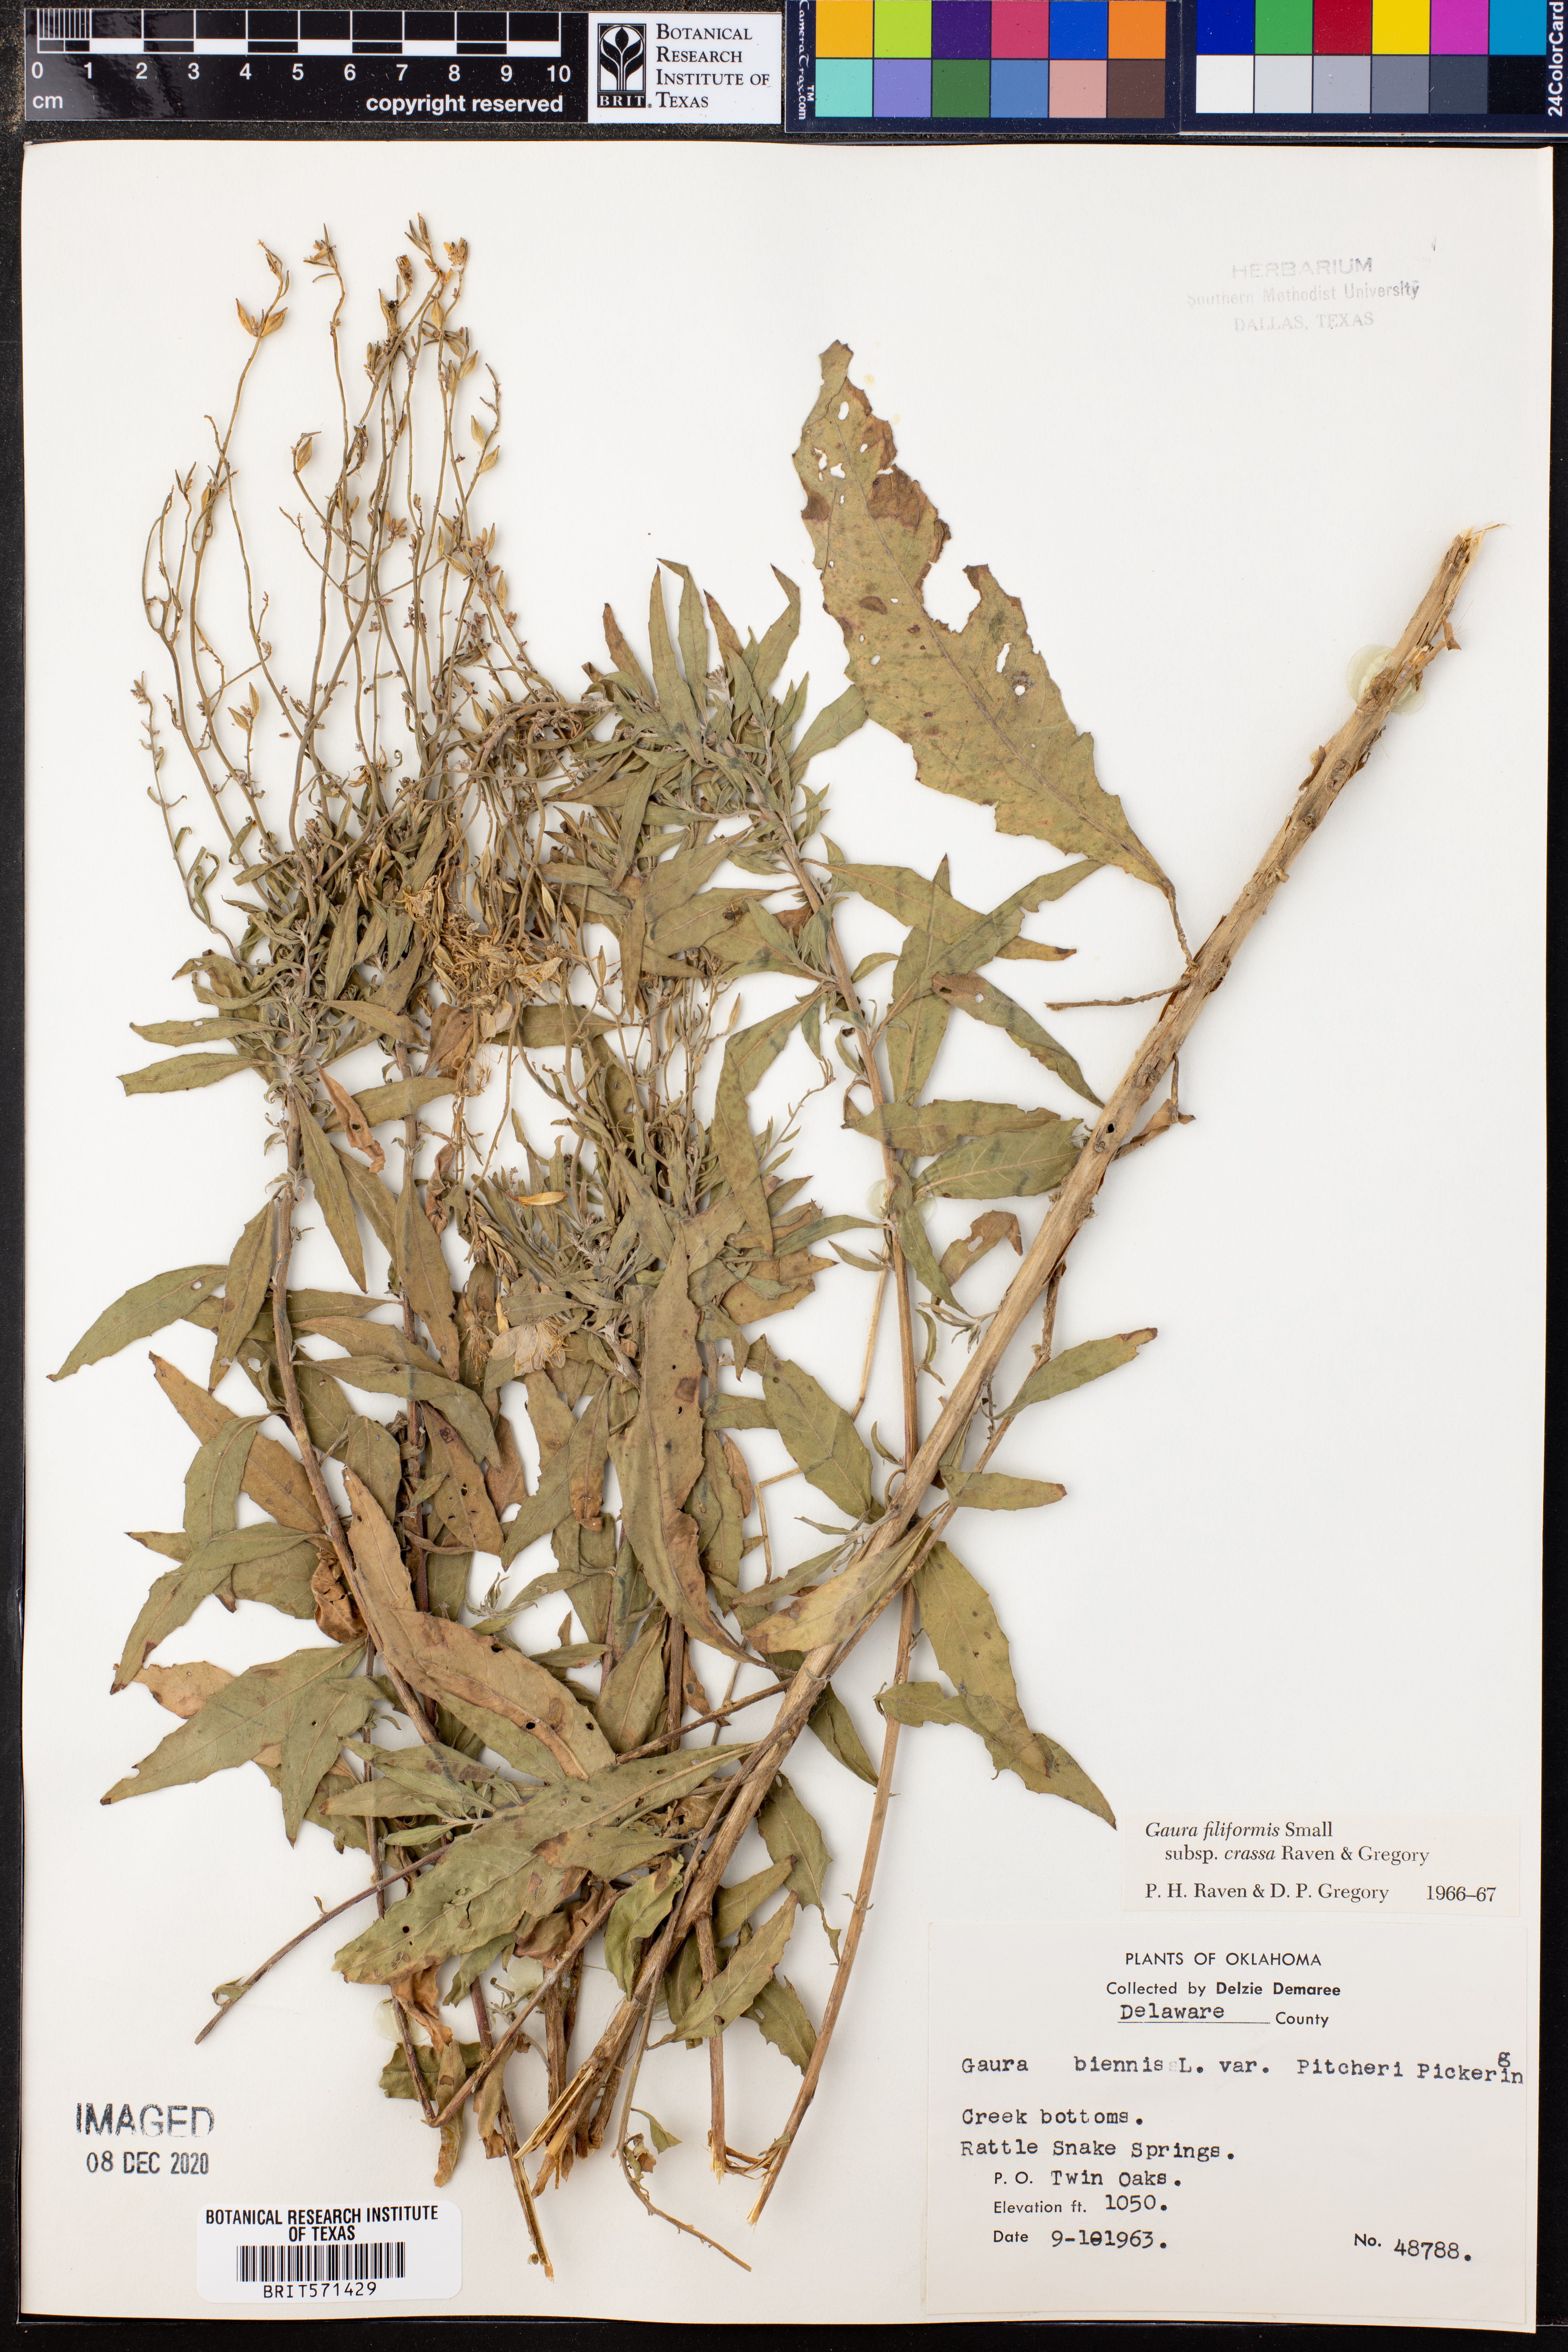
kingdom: Plantae
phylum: Tracheophyta
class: Magnoliopsida
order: Myrtales
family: Onagraceae
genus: Oenothera
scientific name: Oenothera filiformis
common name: Longflower beeblossom
